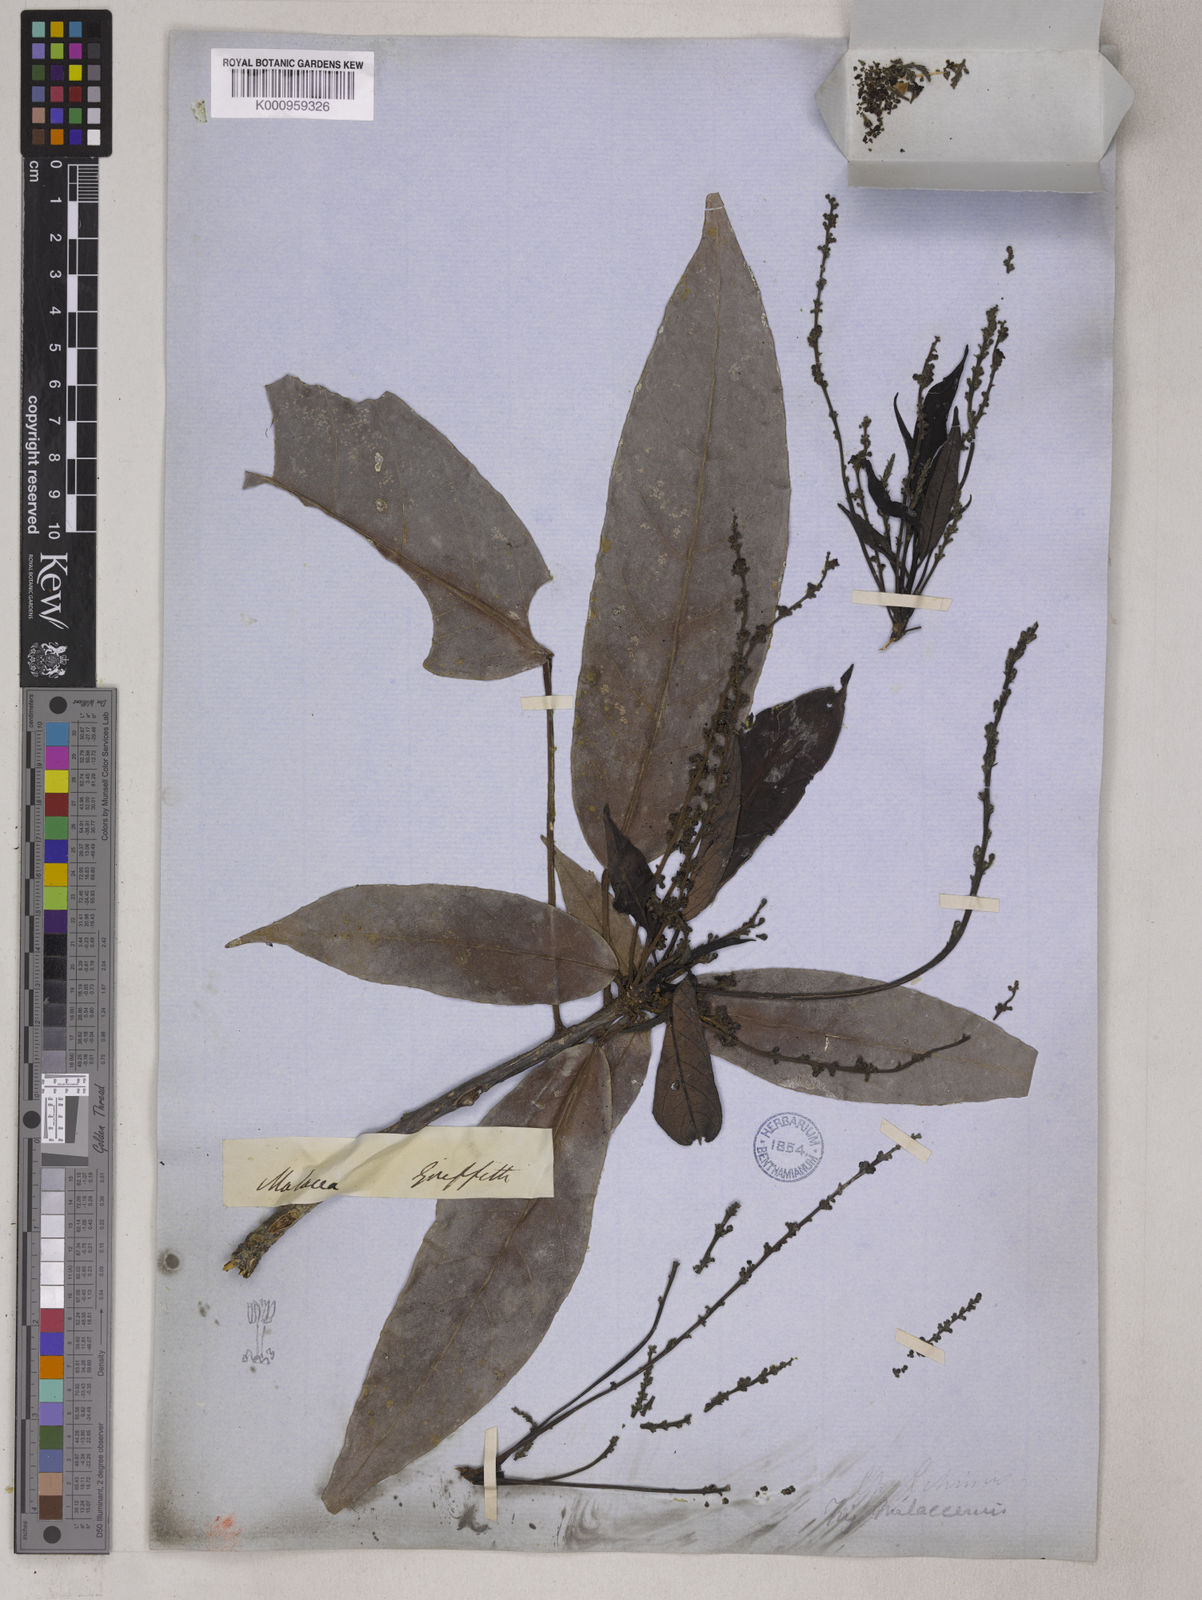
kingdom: Plantae
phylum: Tracheophyta
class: Magnoliopsida
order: Malpighiales
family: Euphorbiaceae
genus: Trigonostemon
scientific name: Trigonostemon malaccanus
